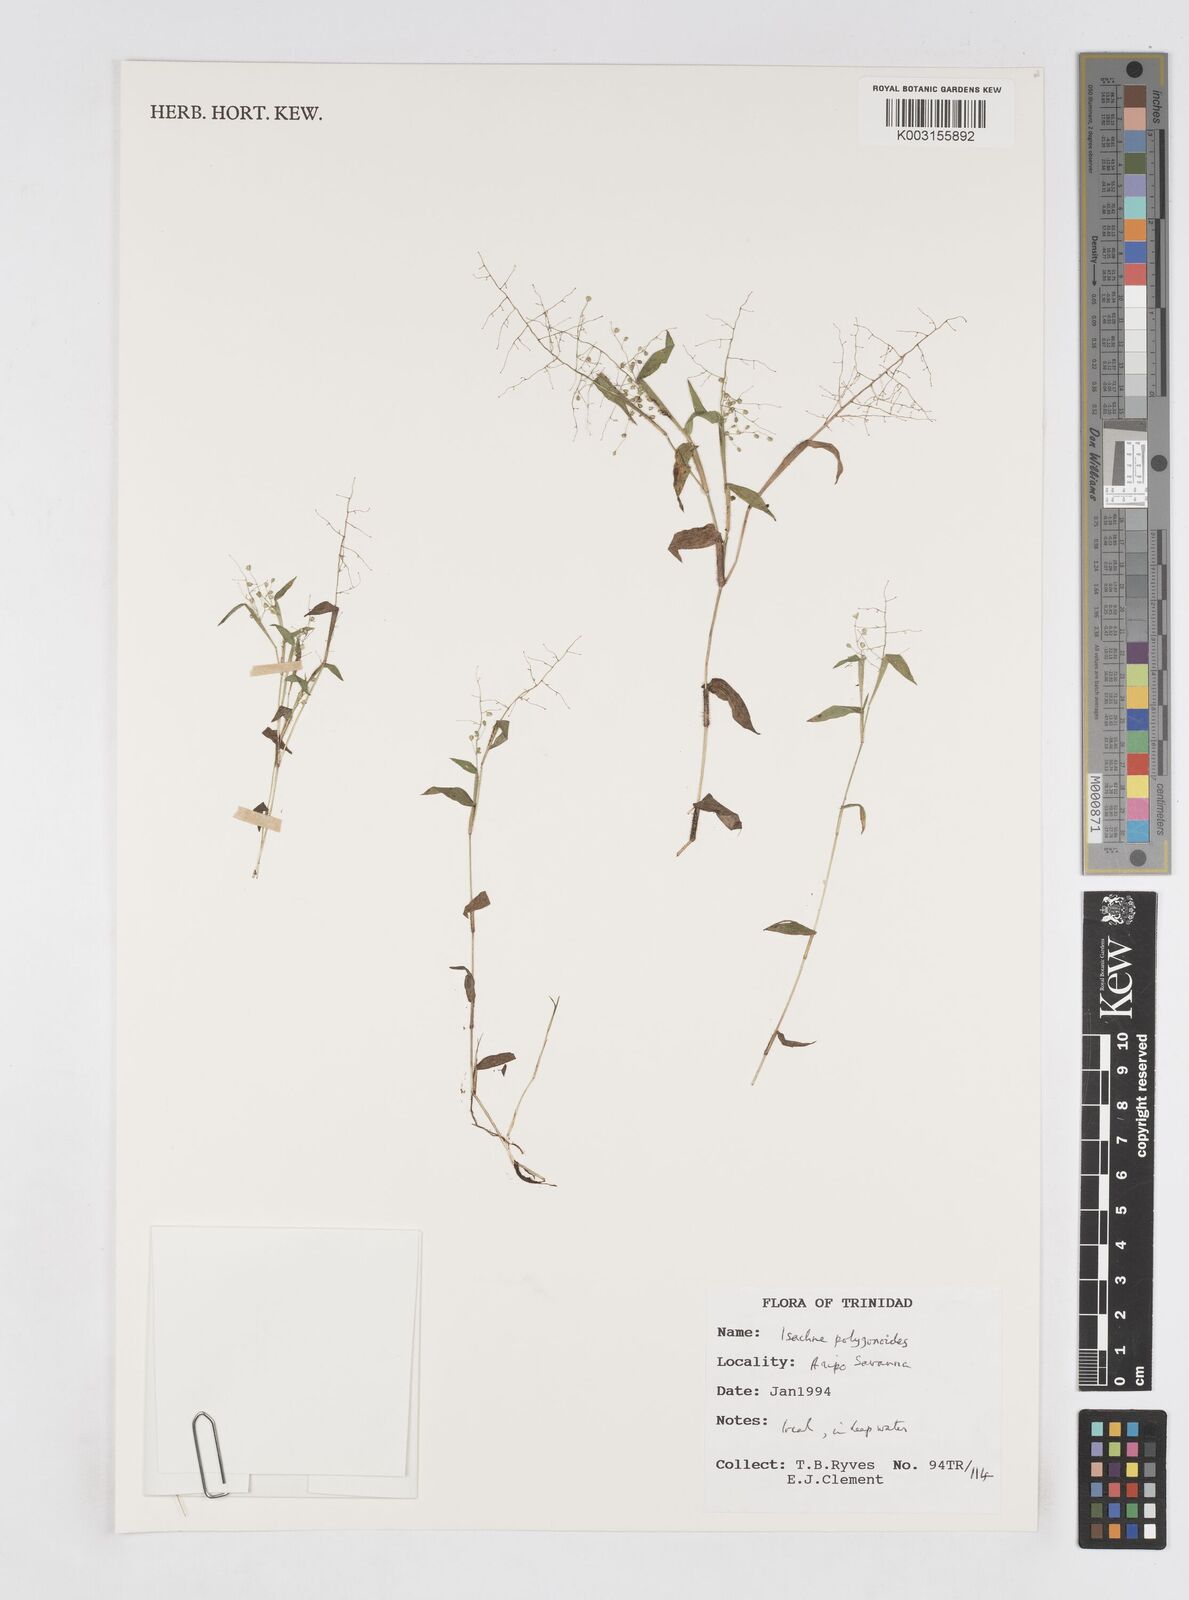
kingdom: Plantae
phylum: Tracheophyta
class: Liliopsida
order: Poales
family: Poaceae
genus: Isachne
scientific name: Isachne polygonoides
